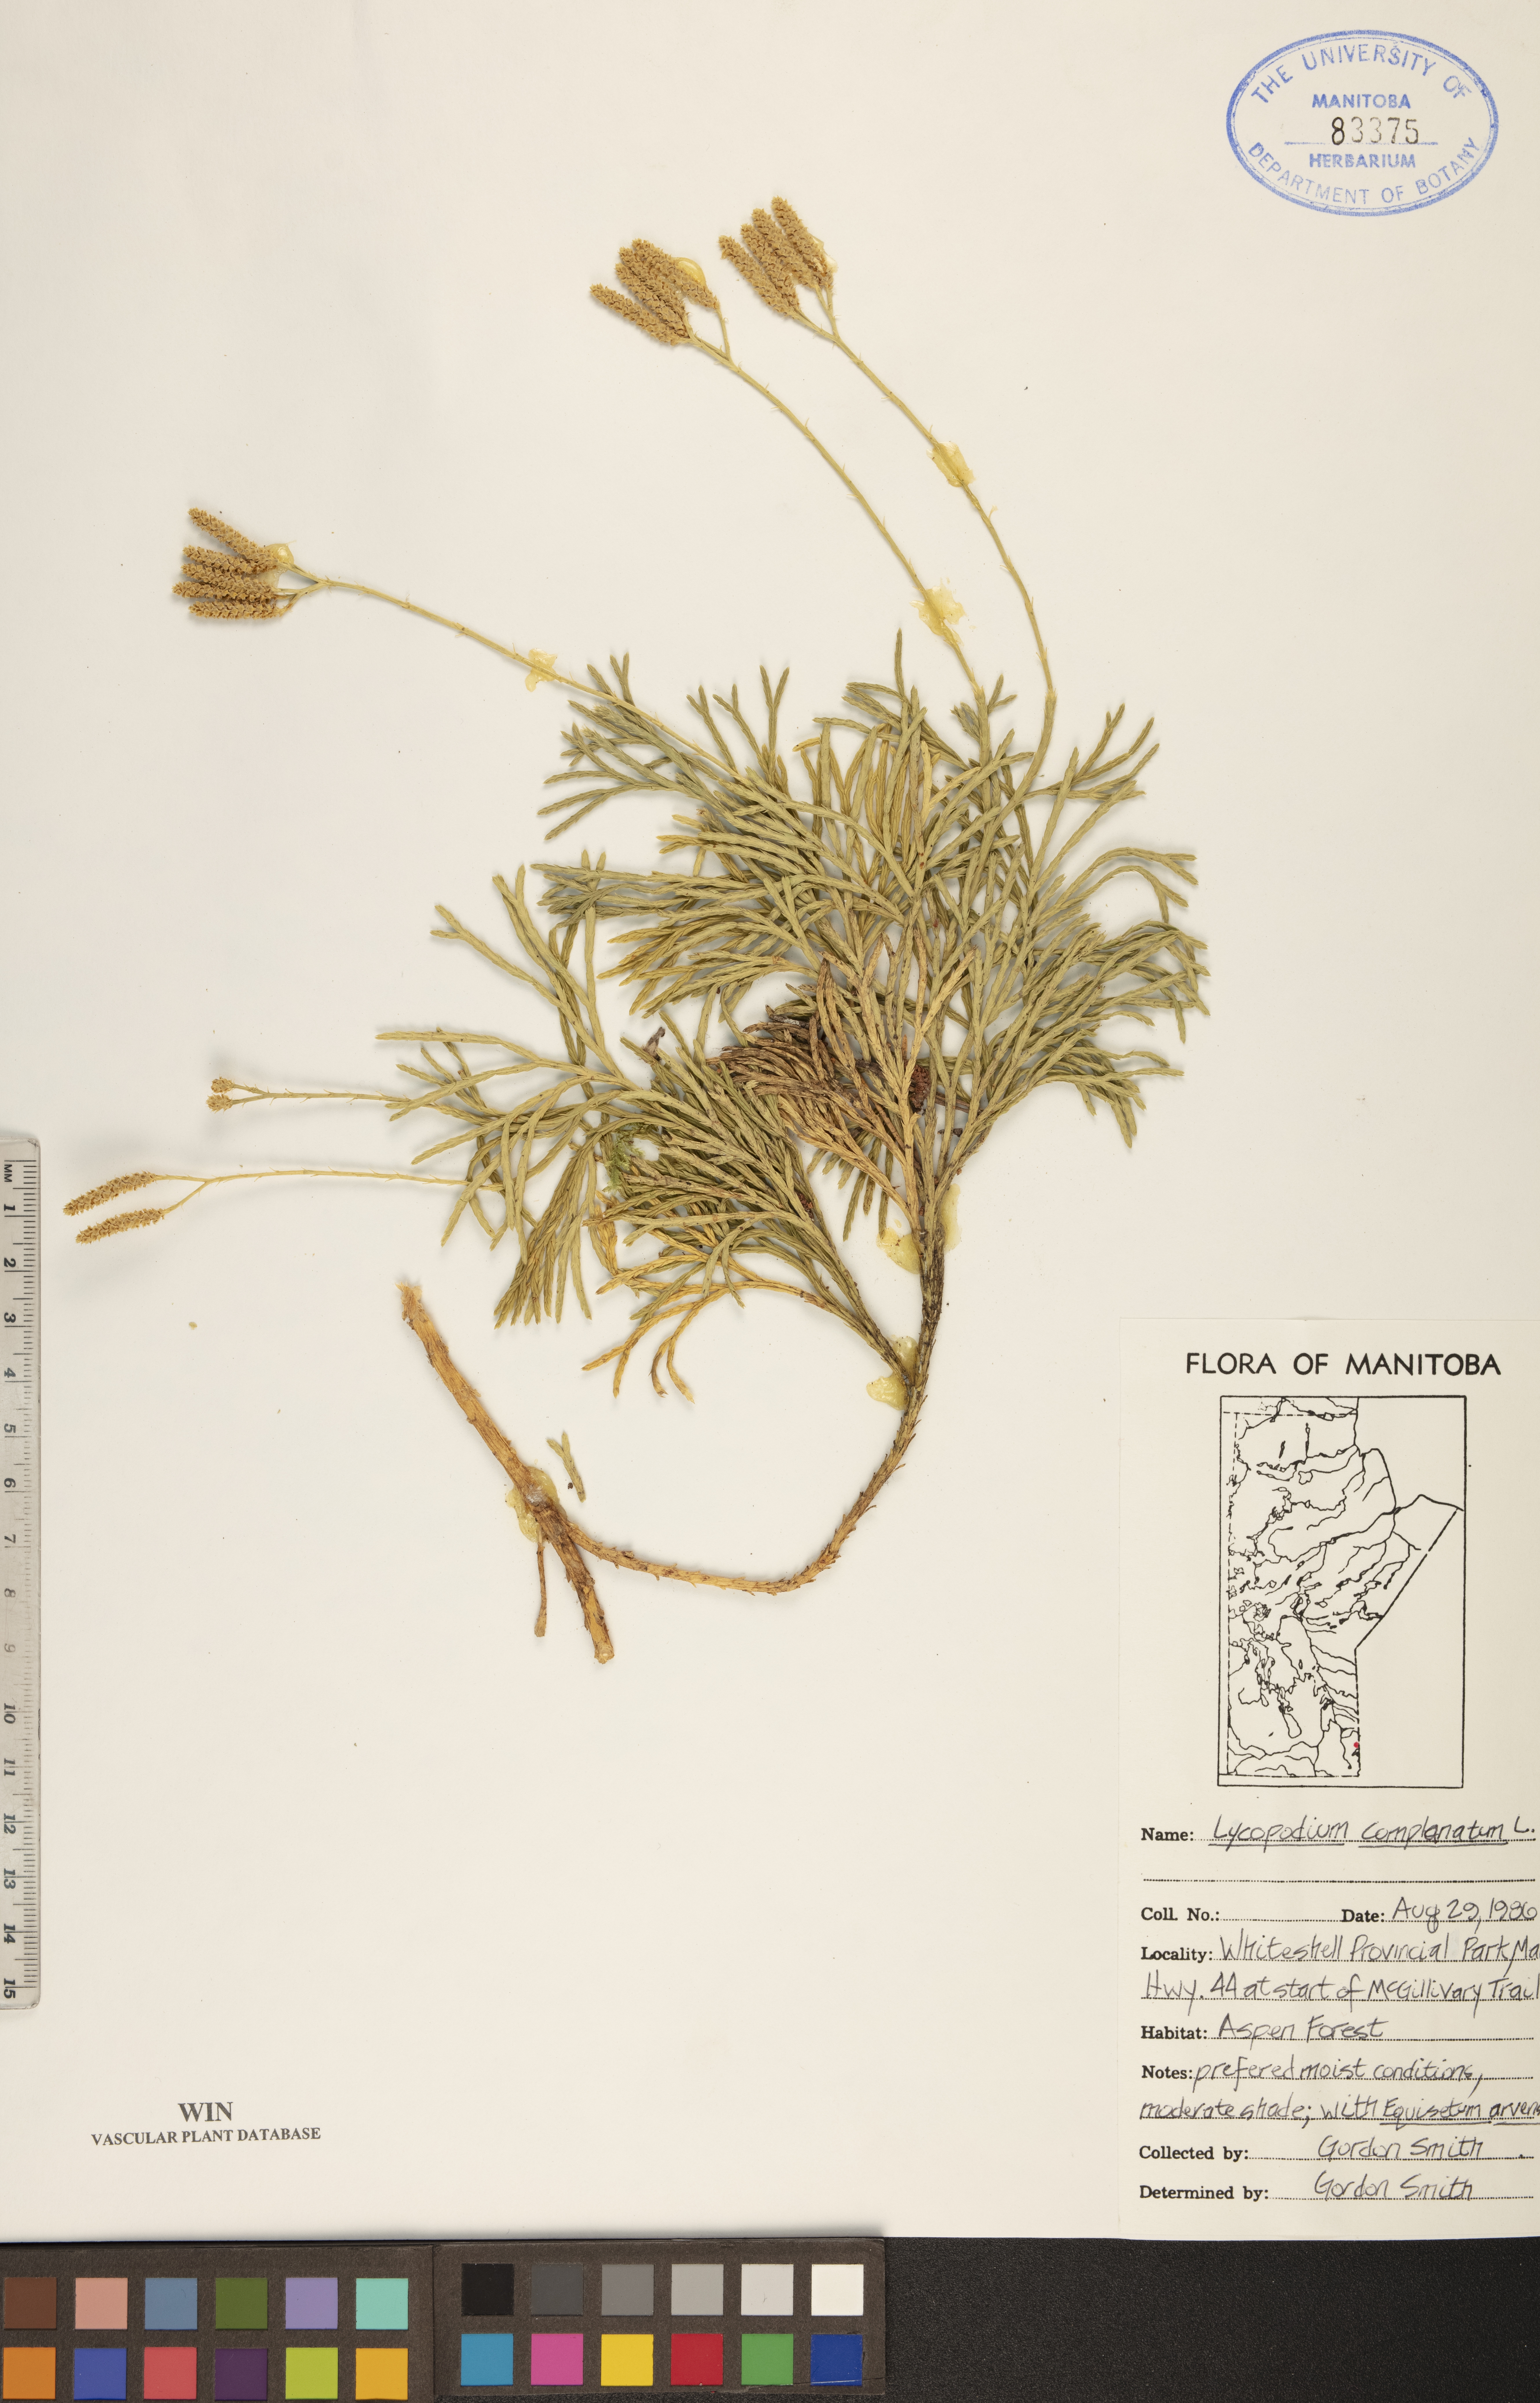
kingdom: Plantae
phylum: Tracheophyta
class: Lycopodiopsida
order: Lycopodiales
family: Lycopodiaceae
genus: Diphasiastrum
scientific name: Diphasiastrum complanatum
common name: Northern running-pine
